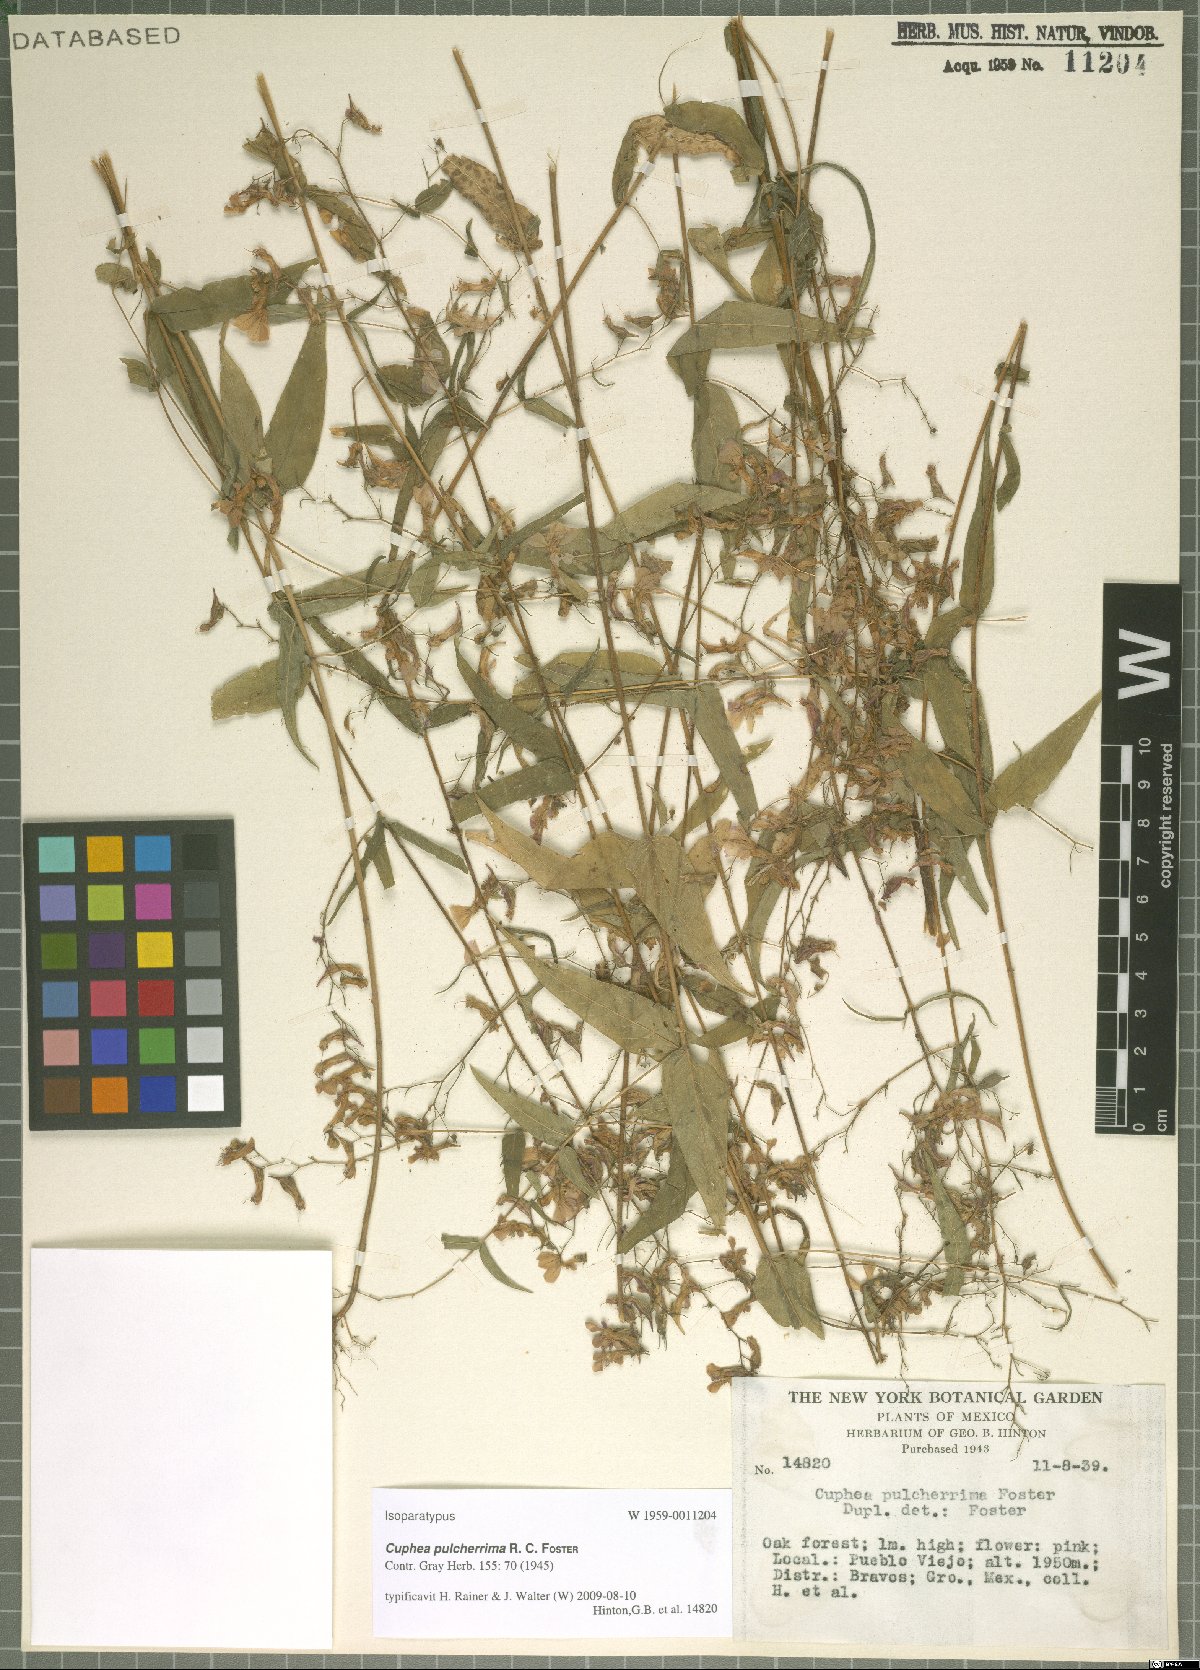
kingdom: Plantae
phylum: Tracheophyta
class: Magnoliopsida
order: Myrtales
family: Lythraceae
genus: Cuphea
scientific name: Cuphea avigera
